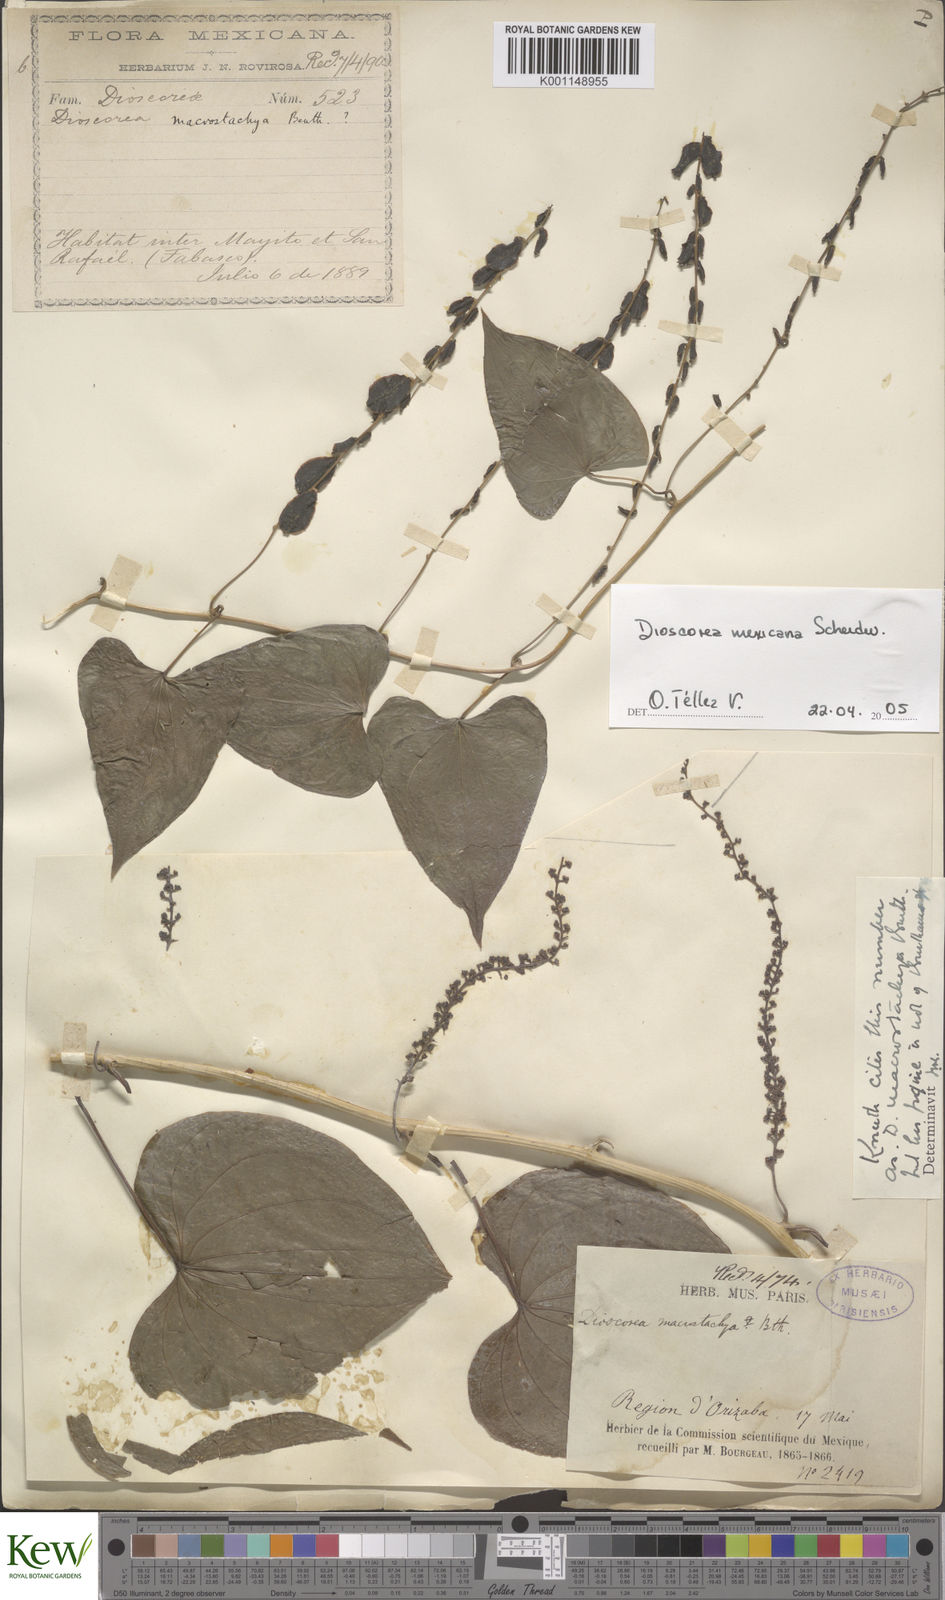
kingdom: Plantae
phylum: Tracheophyta
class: Liliopsida
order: Dioscoreales
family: Dioscoreaceae
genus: Dioscorea
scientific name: Dioscorea mexicana
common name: Mexican yam
